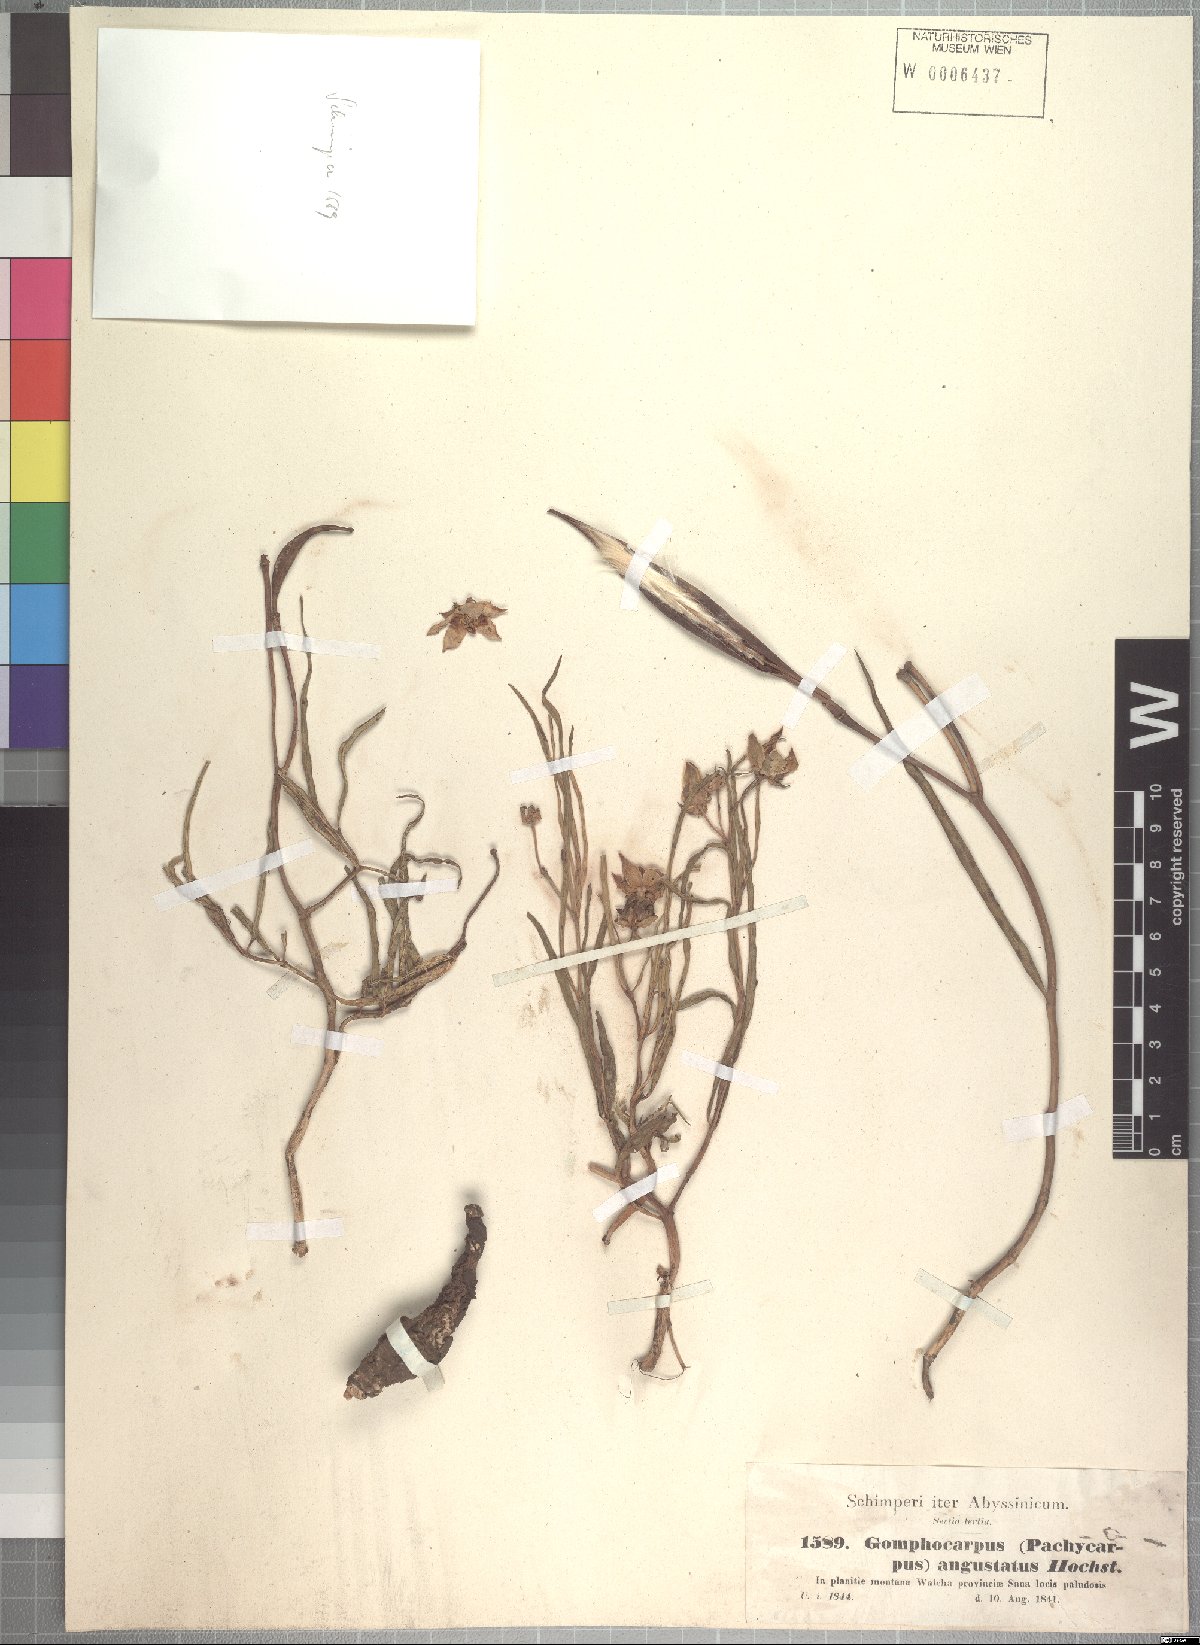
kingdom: Plantae
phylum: Tracheophyta
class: Magnoliopsida
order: Gentianales
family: Apocynaceae
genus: Stathmostelma
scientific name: Stathmostelma angustatum
